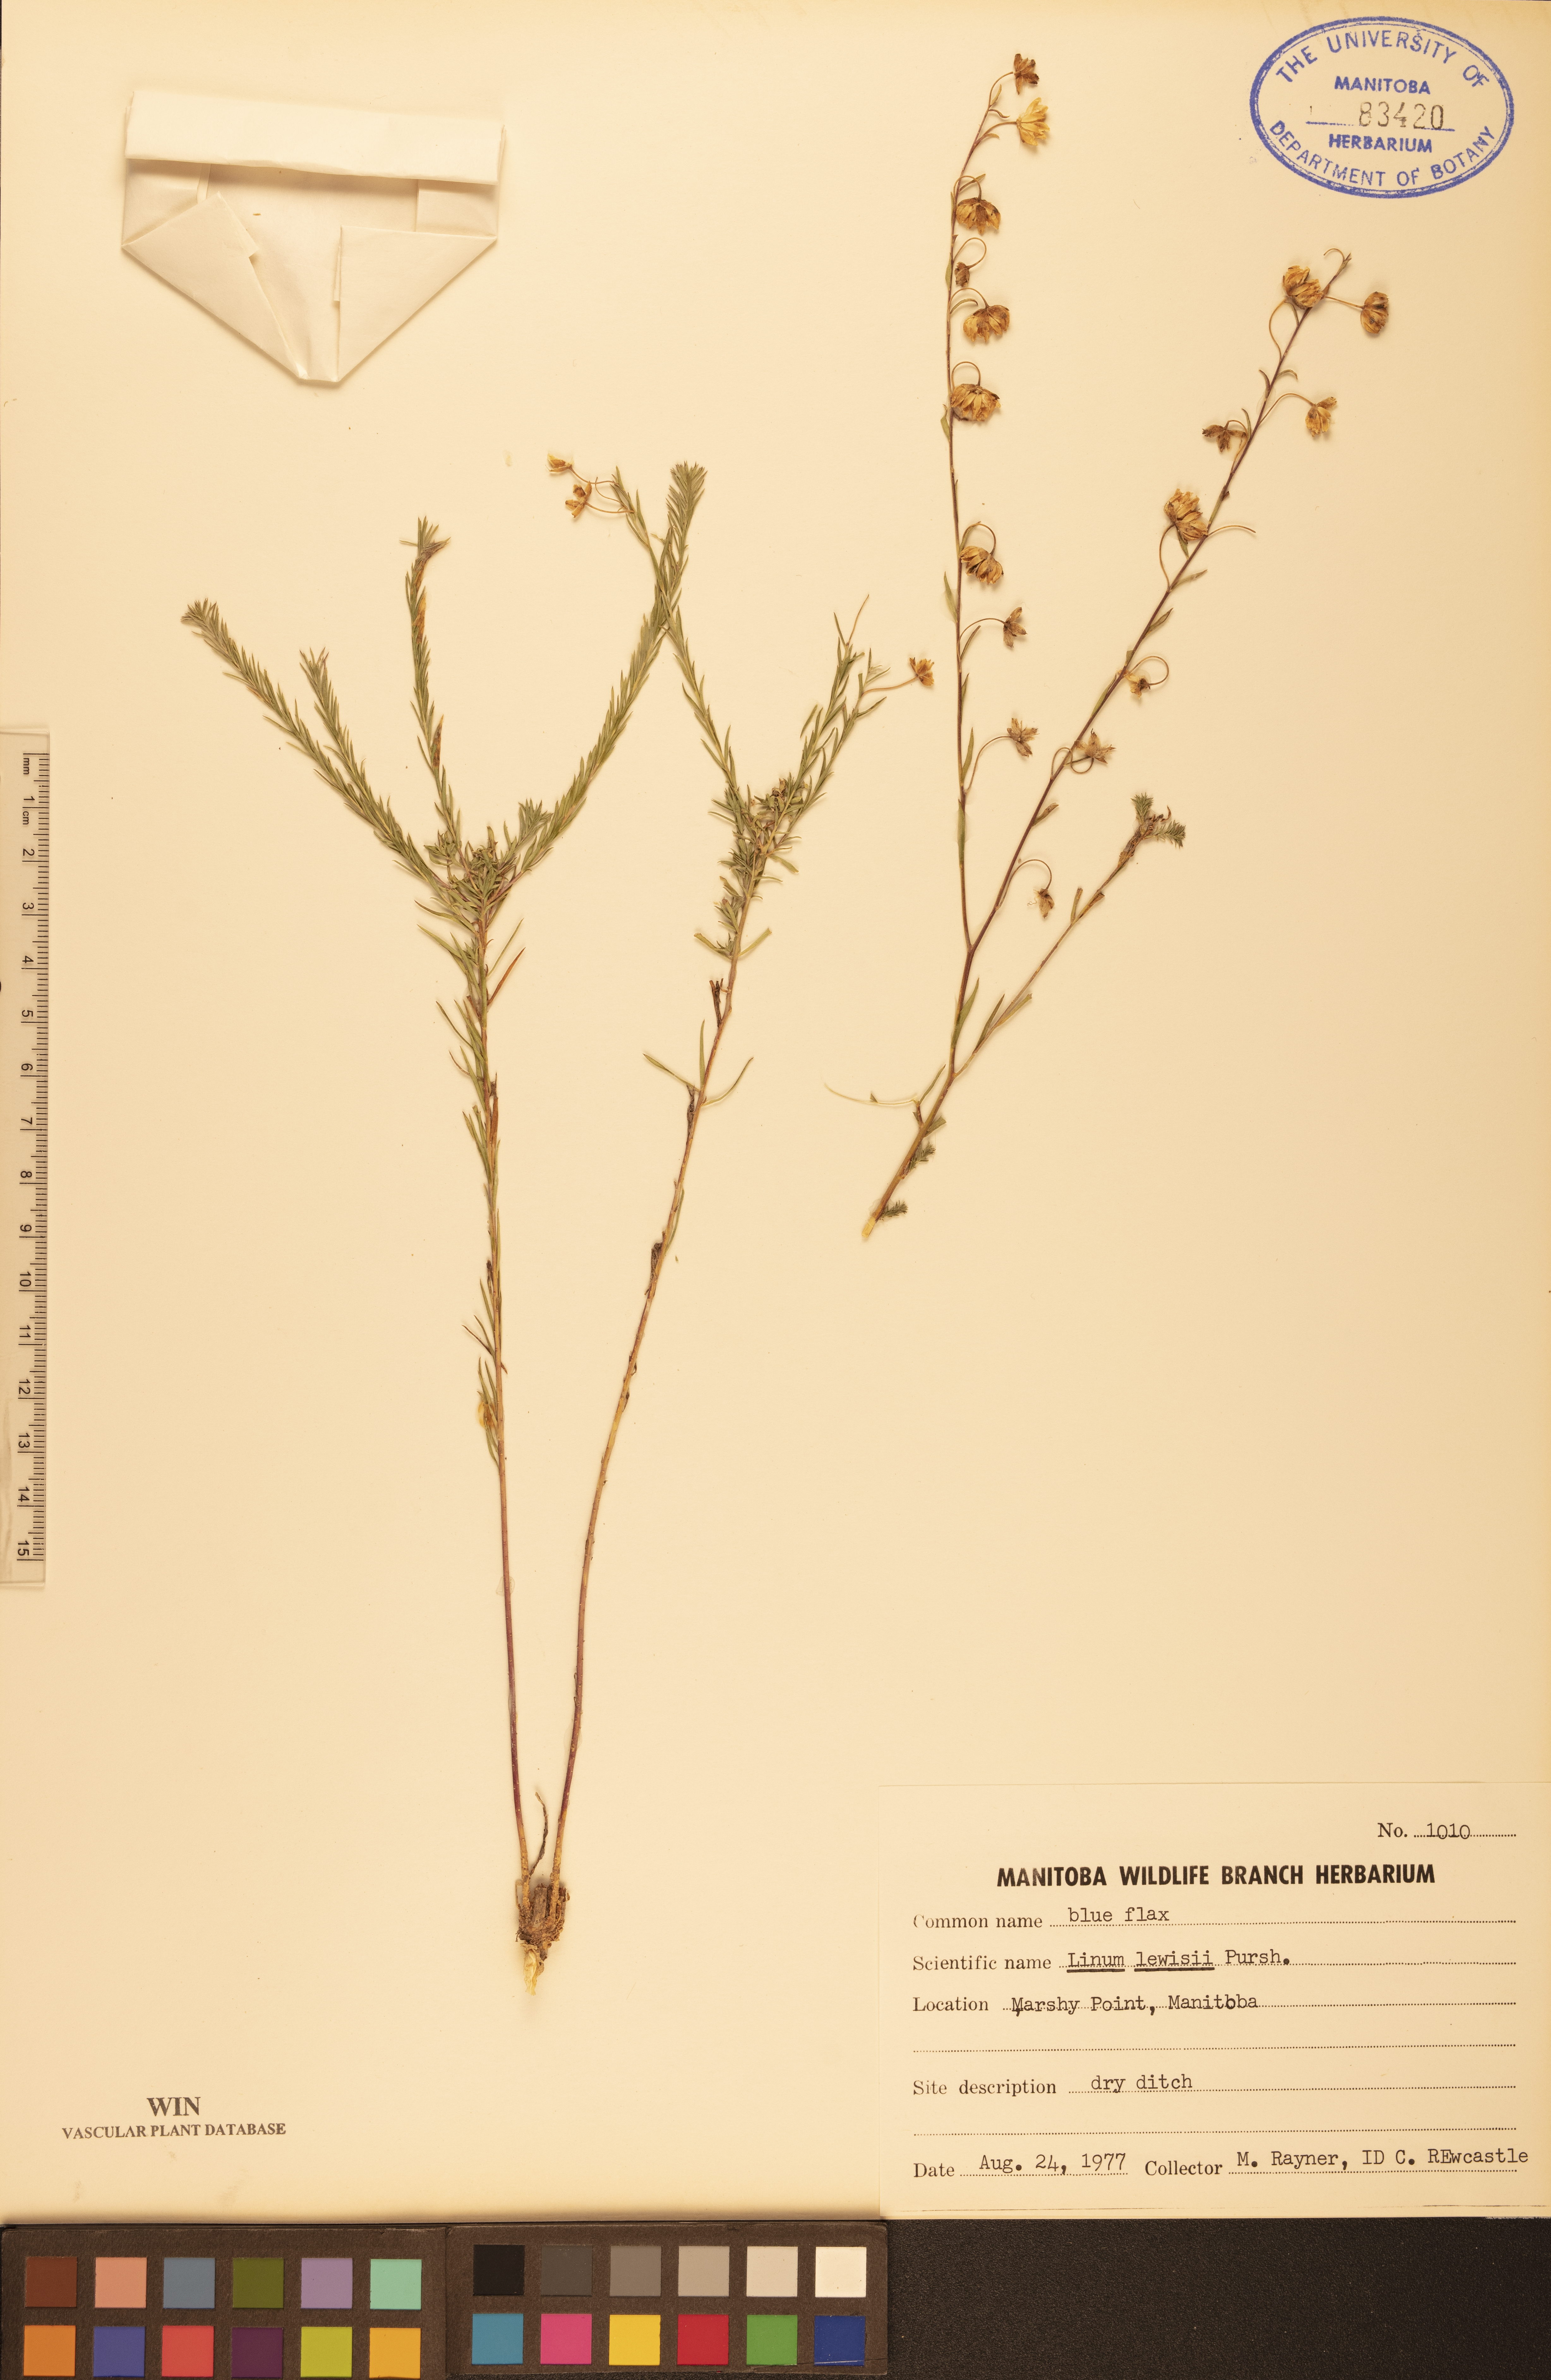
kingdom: Plantae
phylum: Tracheophyta
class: Magnoliopsida
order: Malpighiales
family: Linaceae
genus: Linum
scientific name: Linum lewisii
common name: Prairie flax
